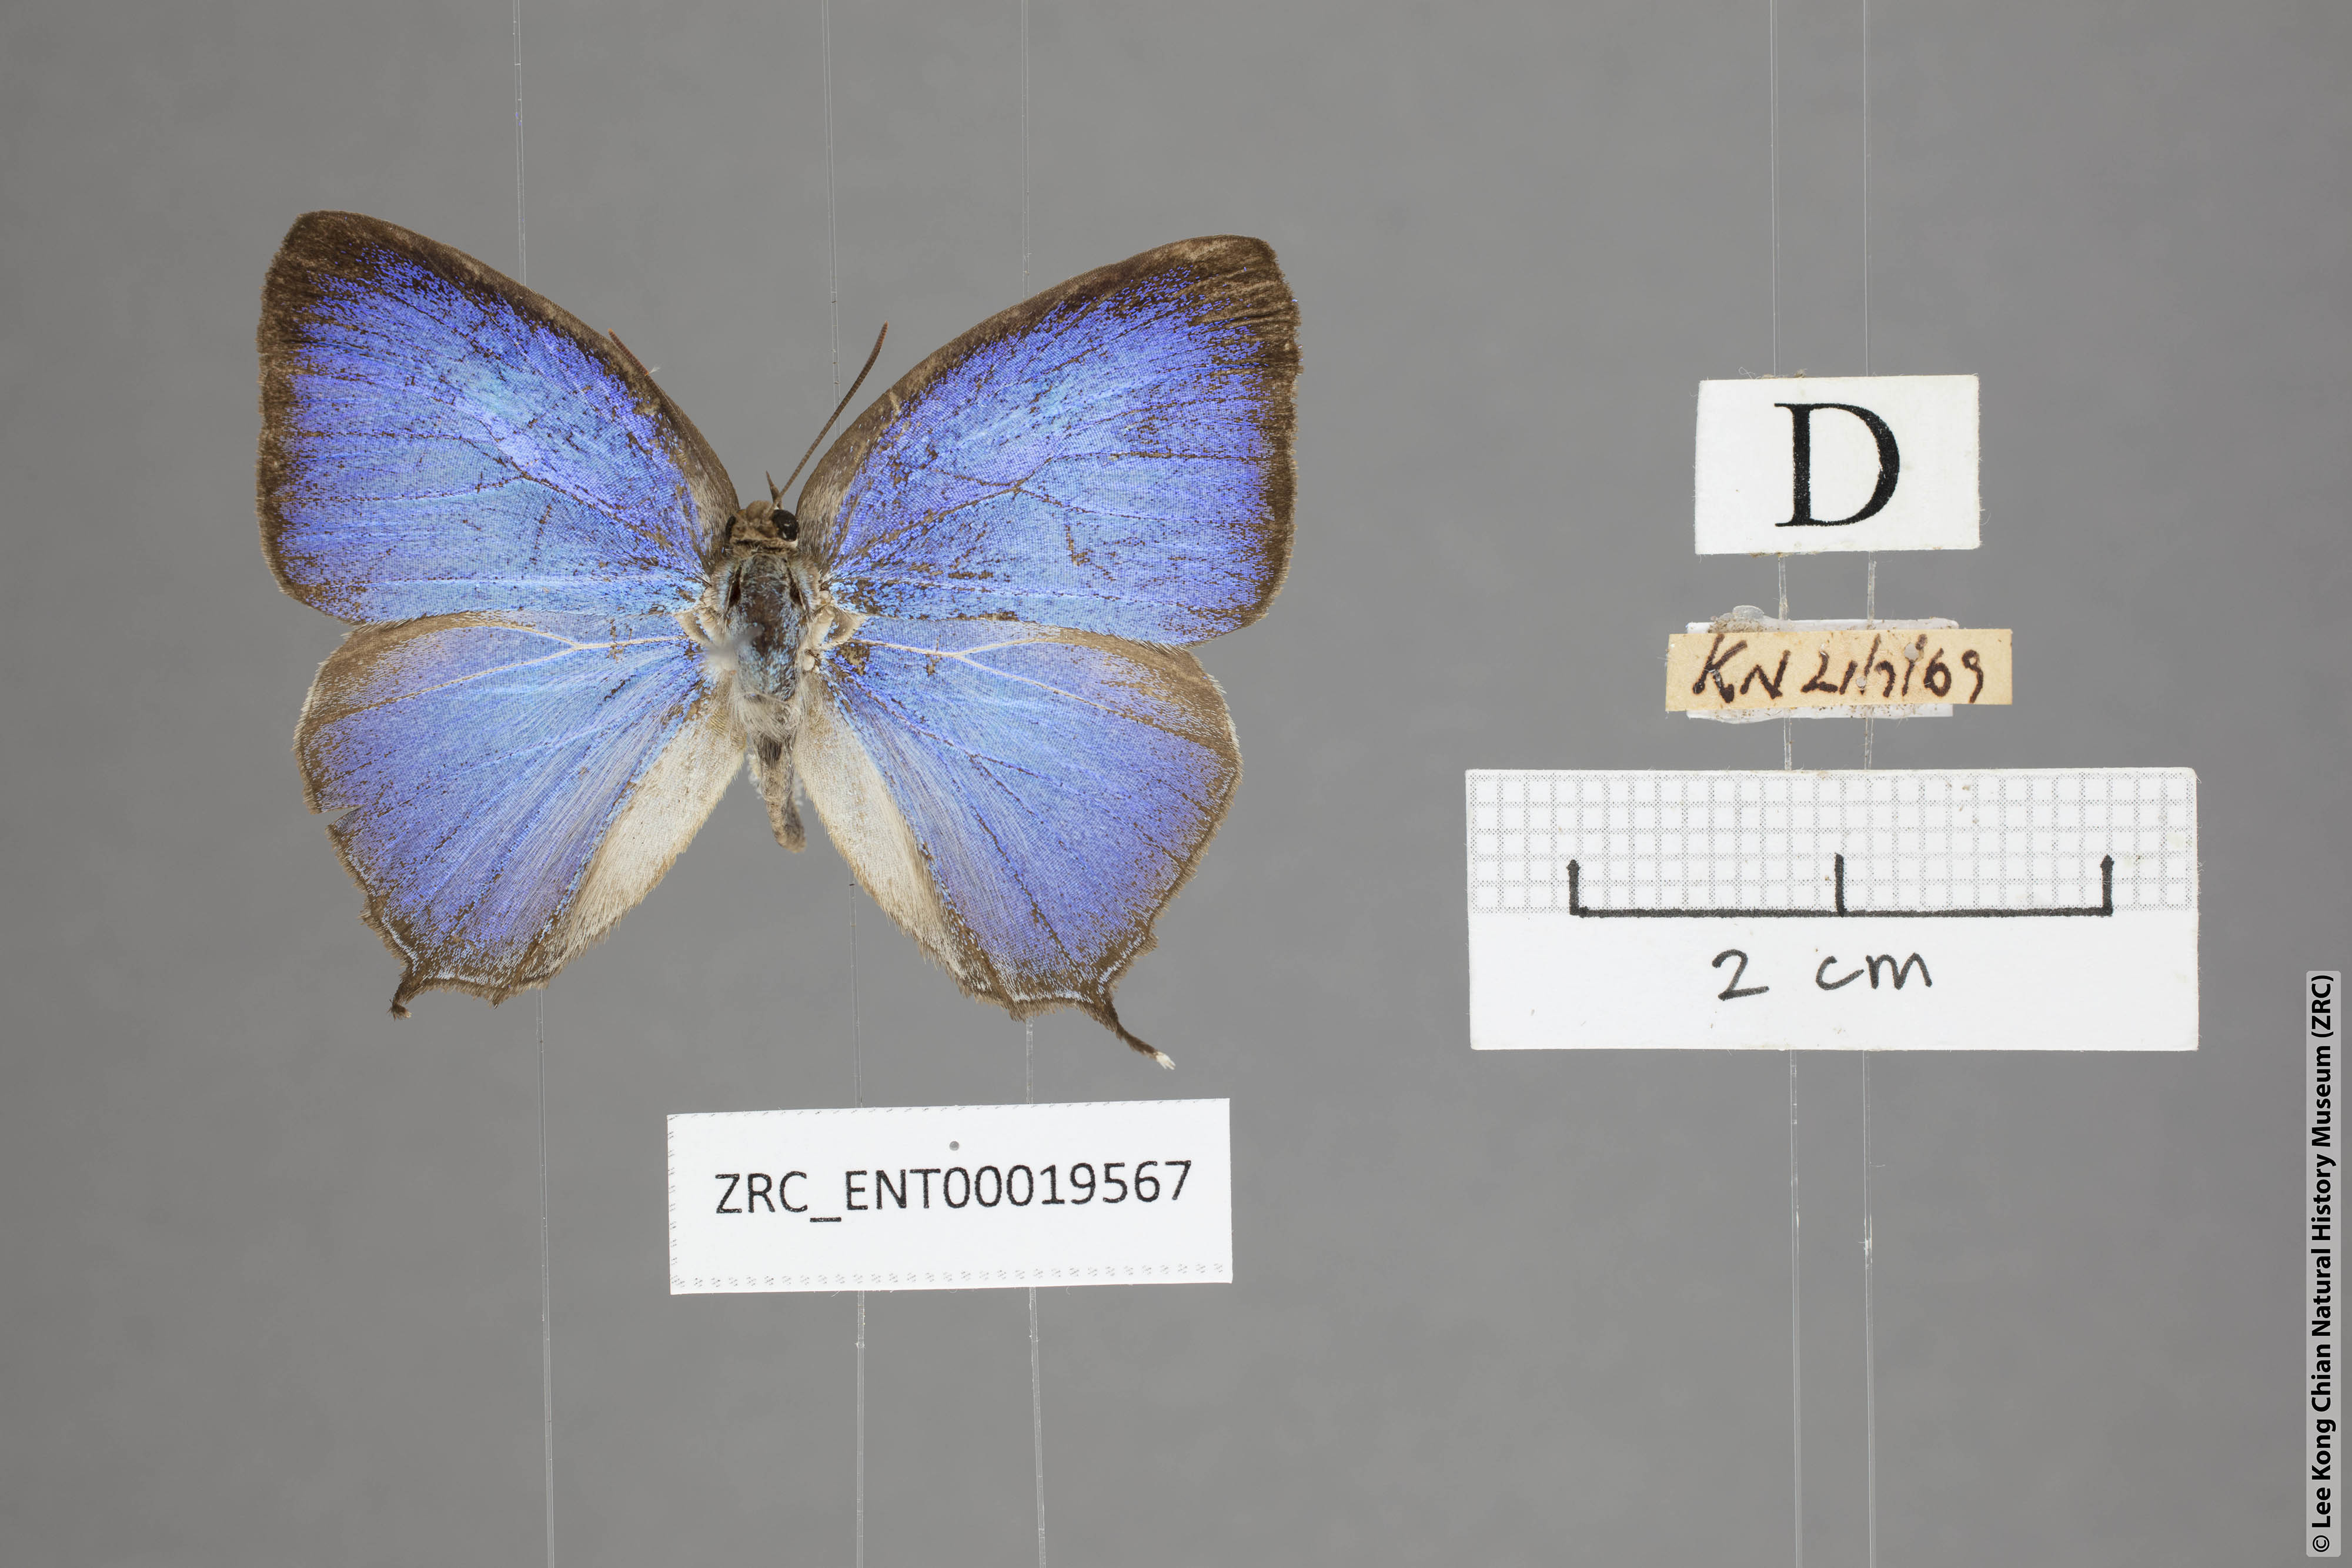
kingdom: Animalia
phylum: Arthropoda
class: Insecta
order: Lepidoptera
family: Lycaenidae
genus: Arhopala
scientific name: Arhopala ijauensis
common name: White-banded oakblue
